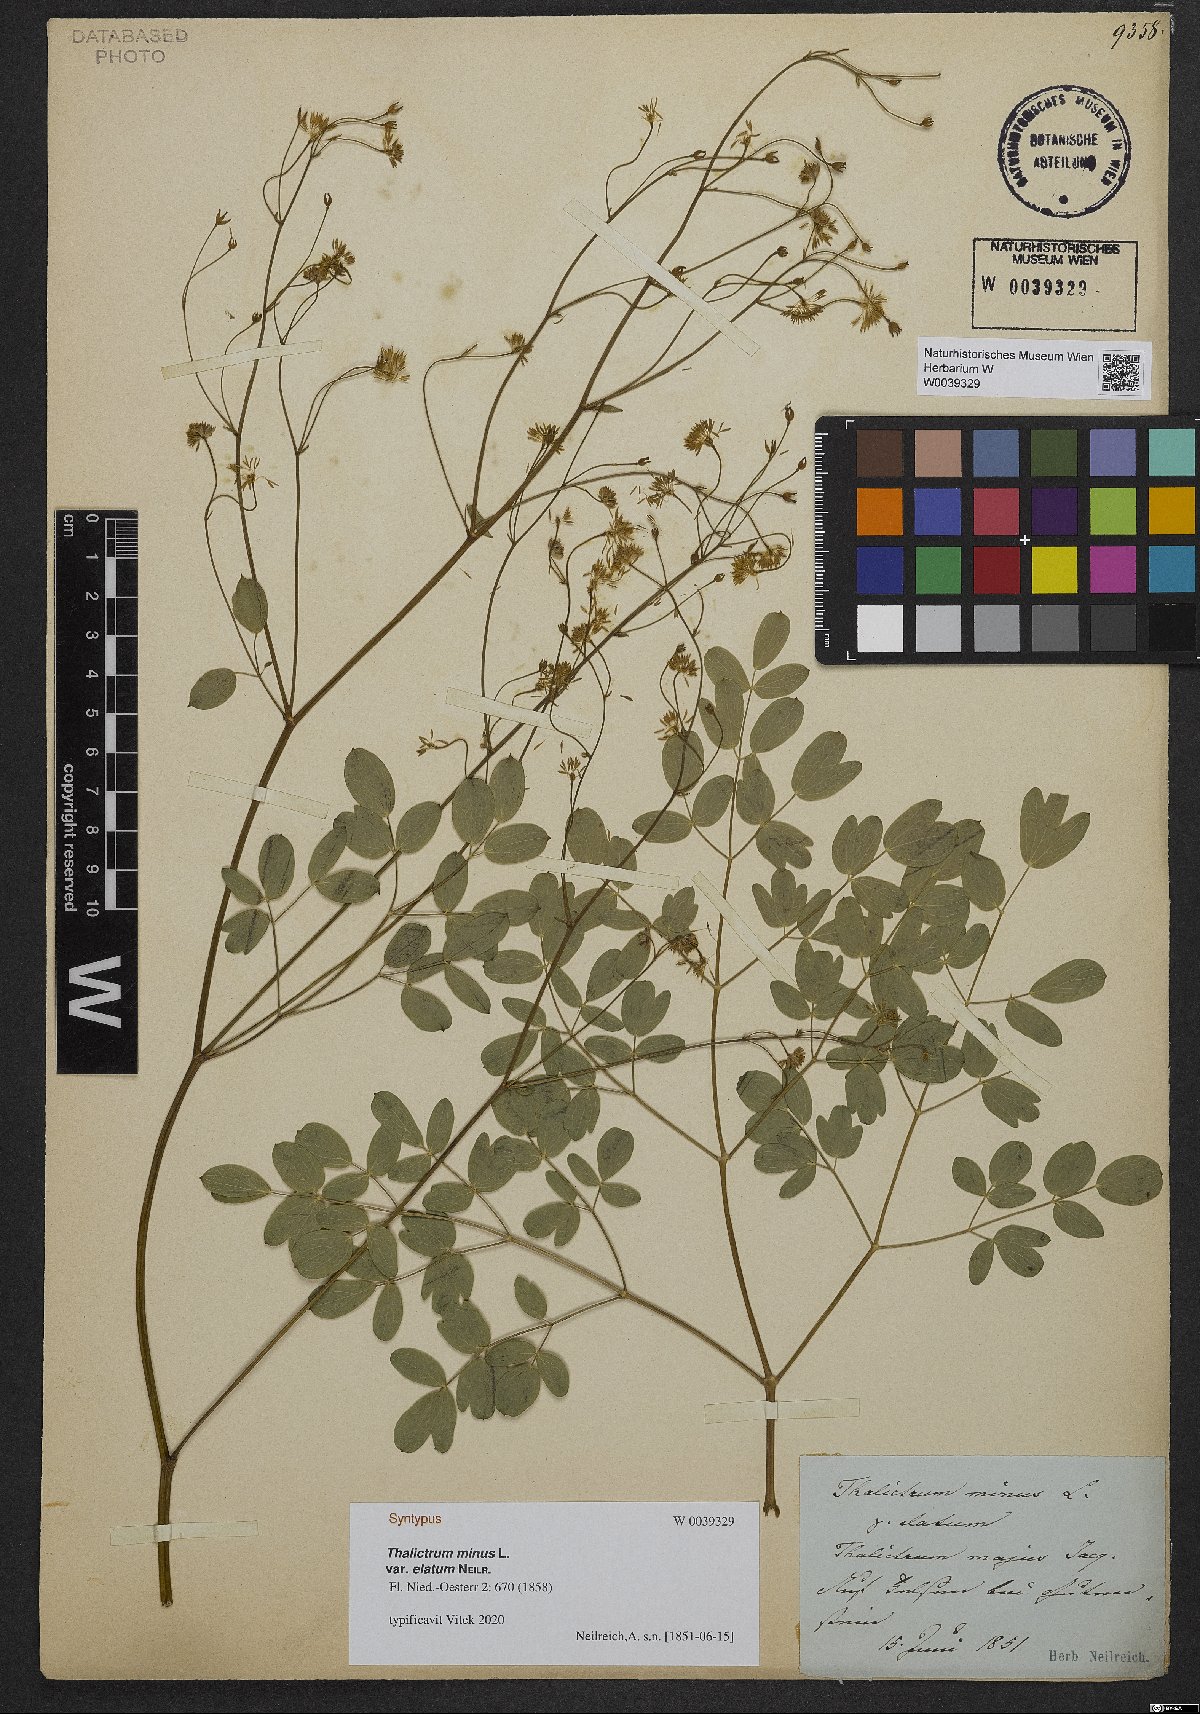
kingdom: Plantae
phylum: Tracheophyta
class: Magnoliopsida
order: Ranunculales
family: Ranunculaceae
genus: Thalictrum
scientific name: Thalictrum minus
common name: Lesser meadow-rue
